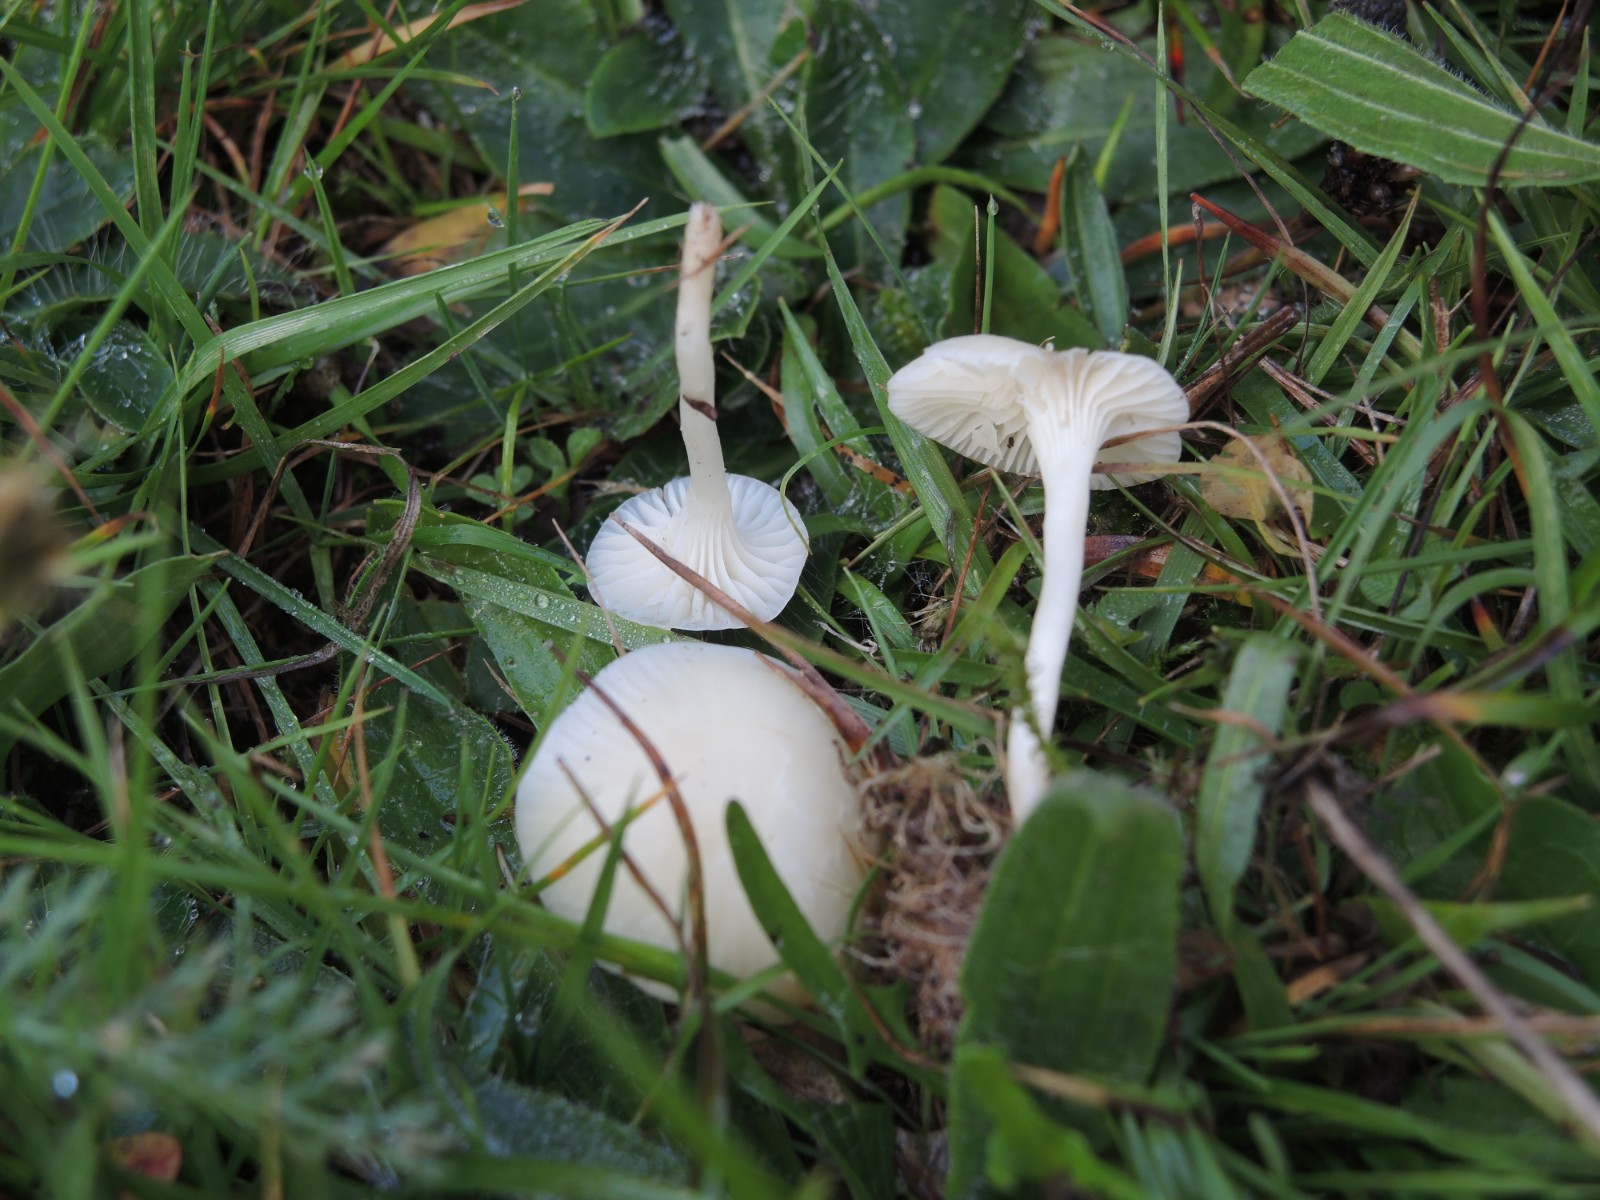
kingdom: Fungi
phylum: Basidiomycota
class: Agaricomycetes
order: Agaricales
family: Hygrophoraceae
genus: Cuphophyllus
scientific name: Cuphophyllus virgineus
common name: snehvid vokshat
